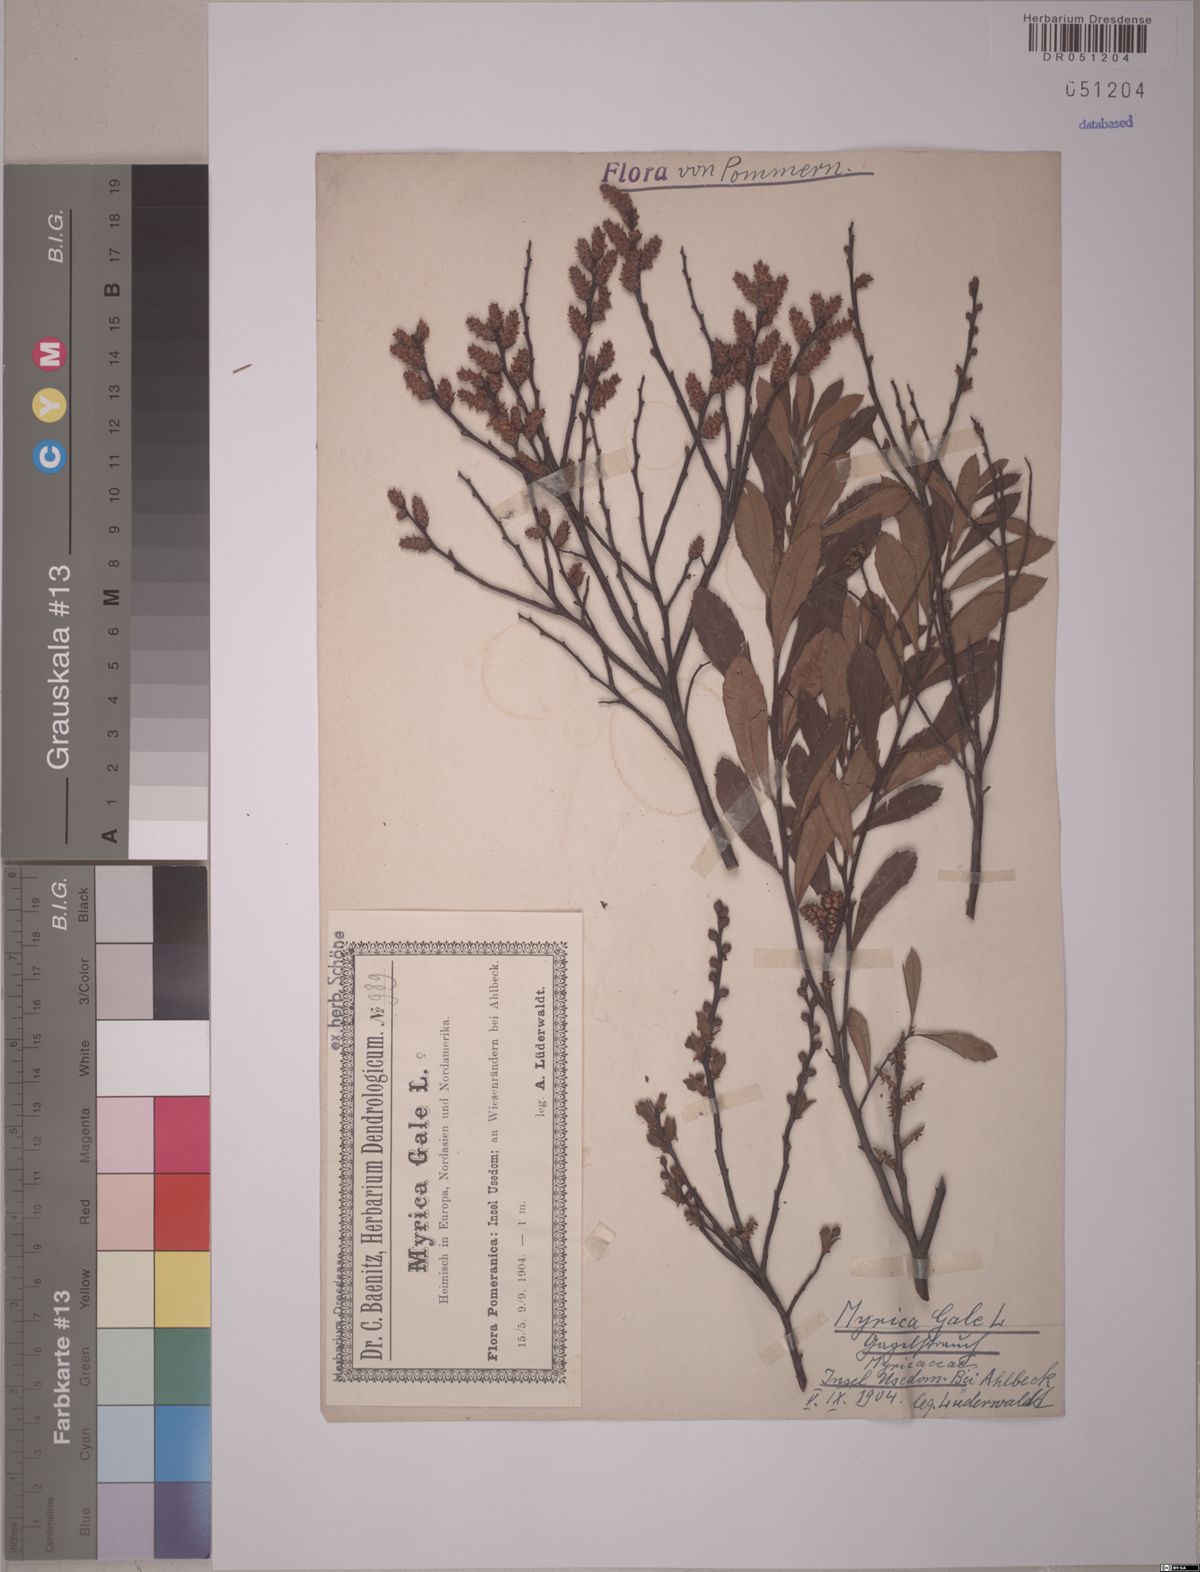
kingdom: Plantae
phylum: Tracheophyta
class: Magnoliopsida
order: Fagales
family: Myricaceae
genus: Myrica
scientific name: Myrica gale
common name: Sweet gale
